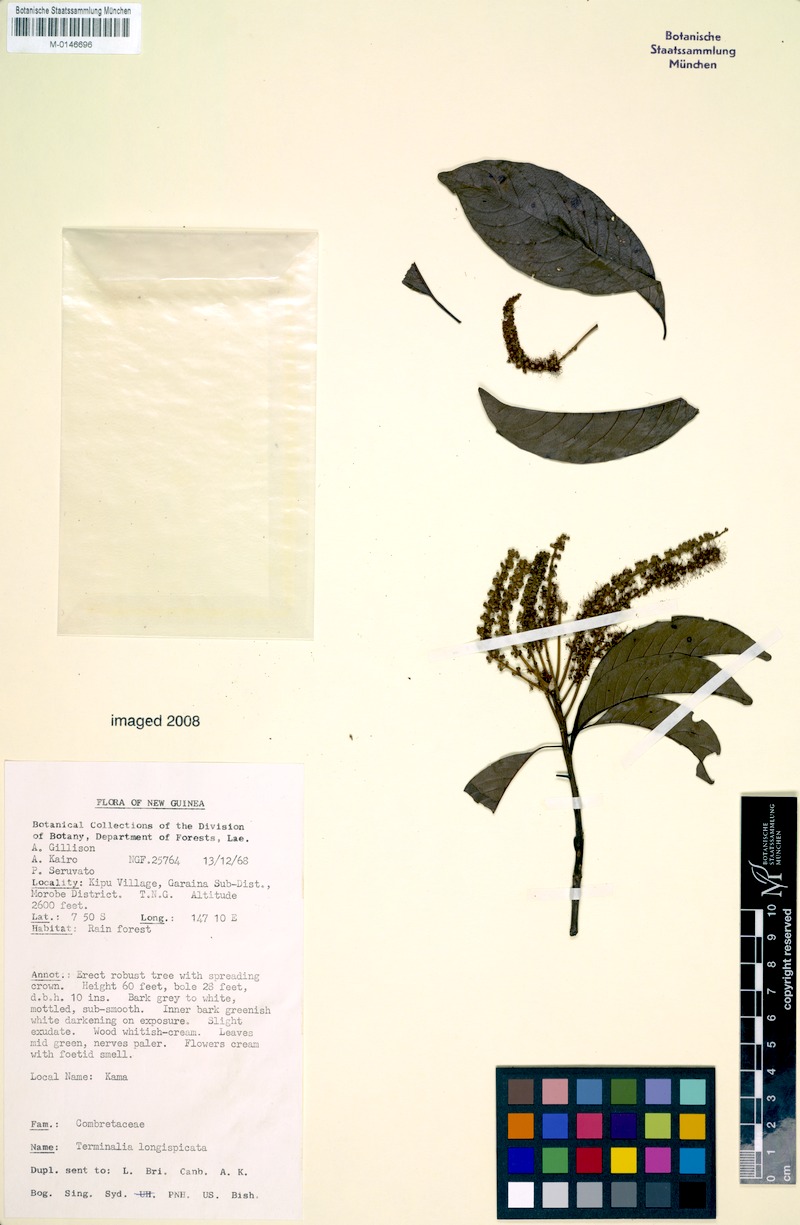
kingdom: Plantae
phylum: Tracheophyta
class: Magnoliopsida
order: Myrtales
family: Combretaceae
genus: Terminalia
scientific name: Terminalia longespicata
